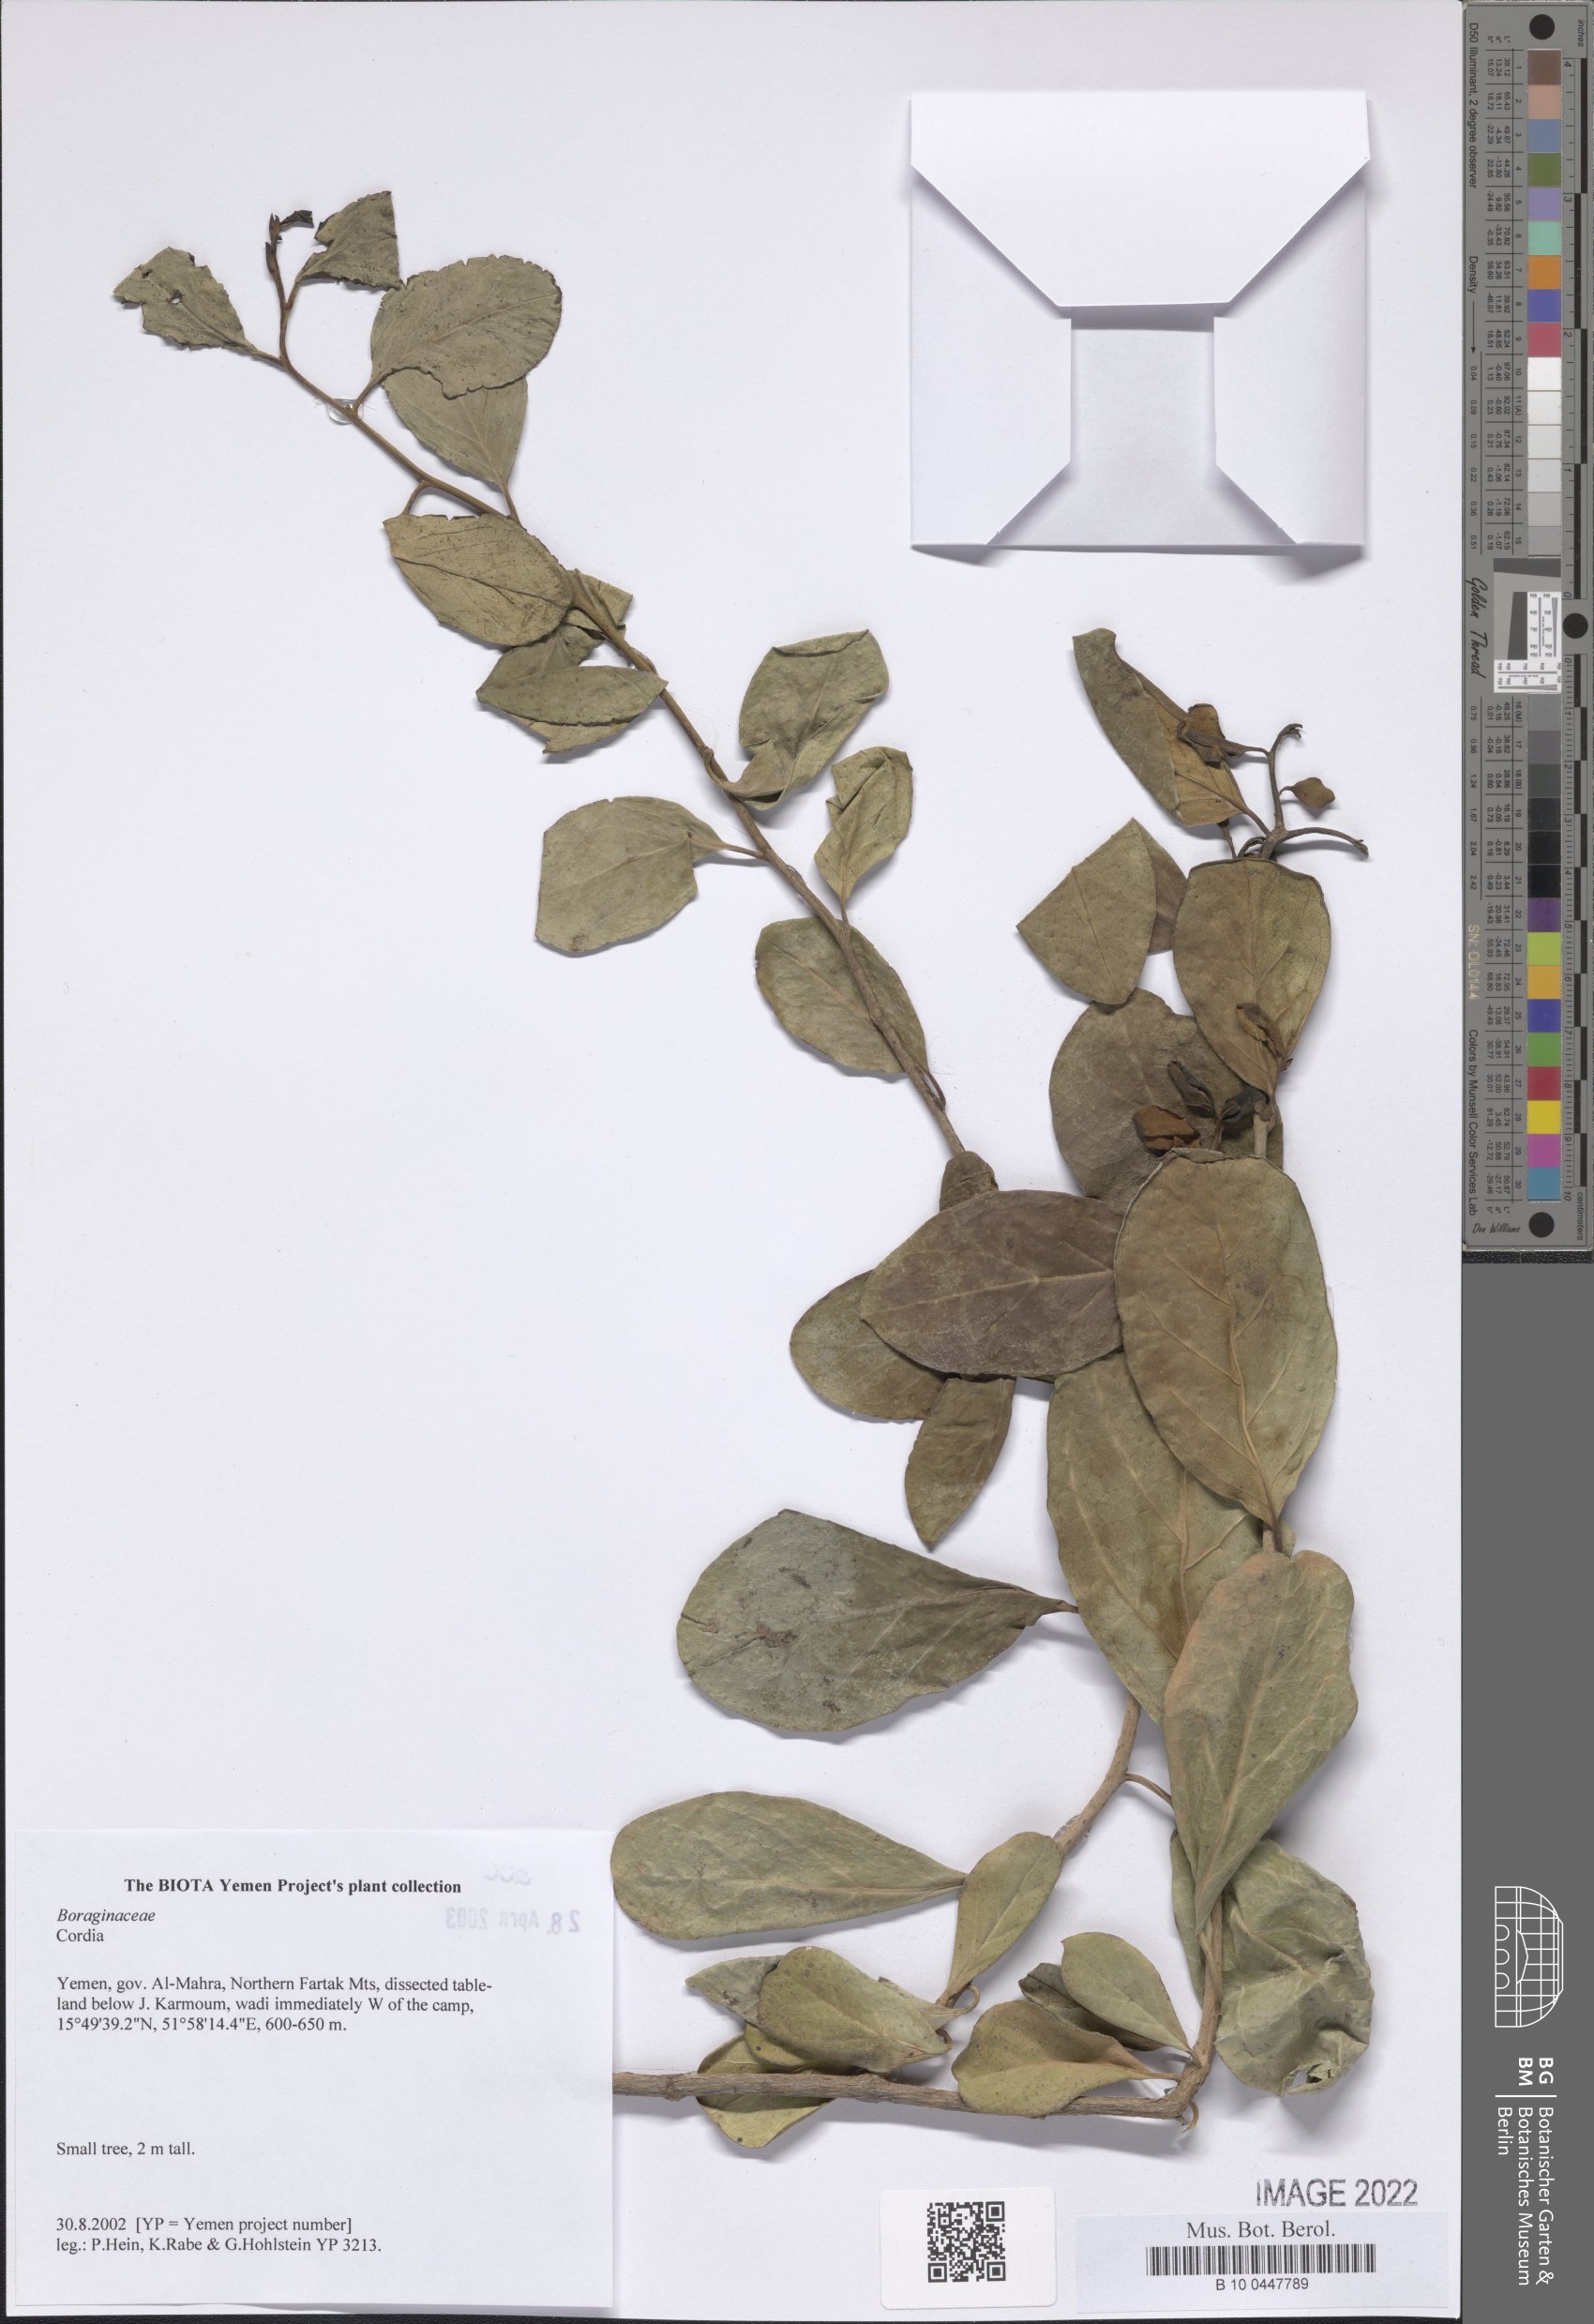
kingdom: Plantae
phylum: Tracheophyta
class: Magnoliopsida
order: Boraginales
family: Cordiaceae
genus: Cordia
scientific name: Cordia
